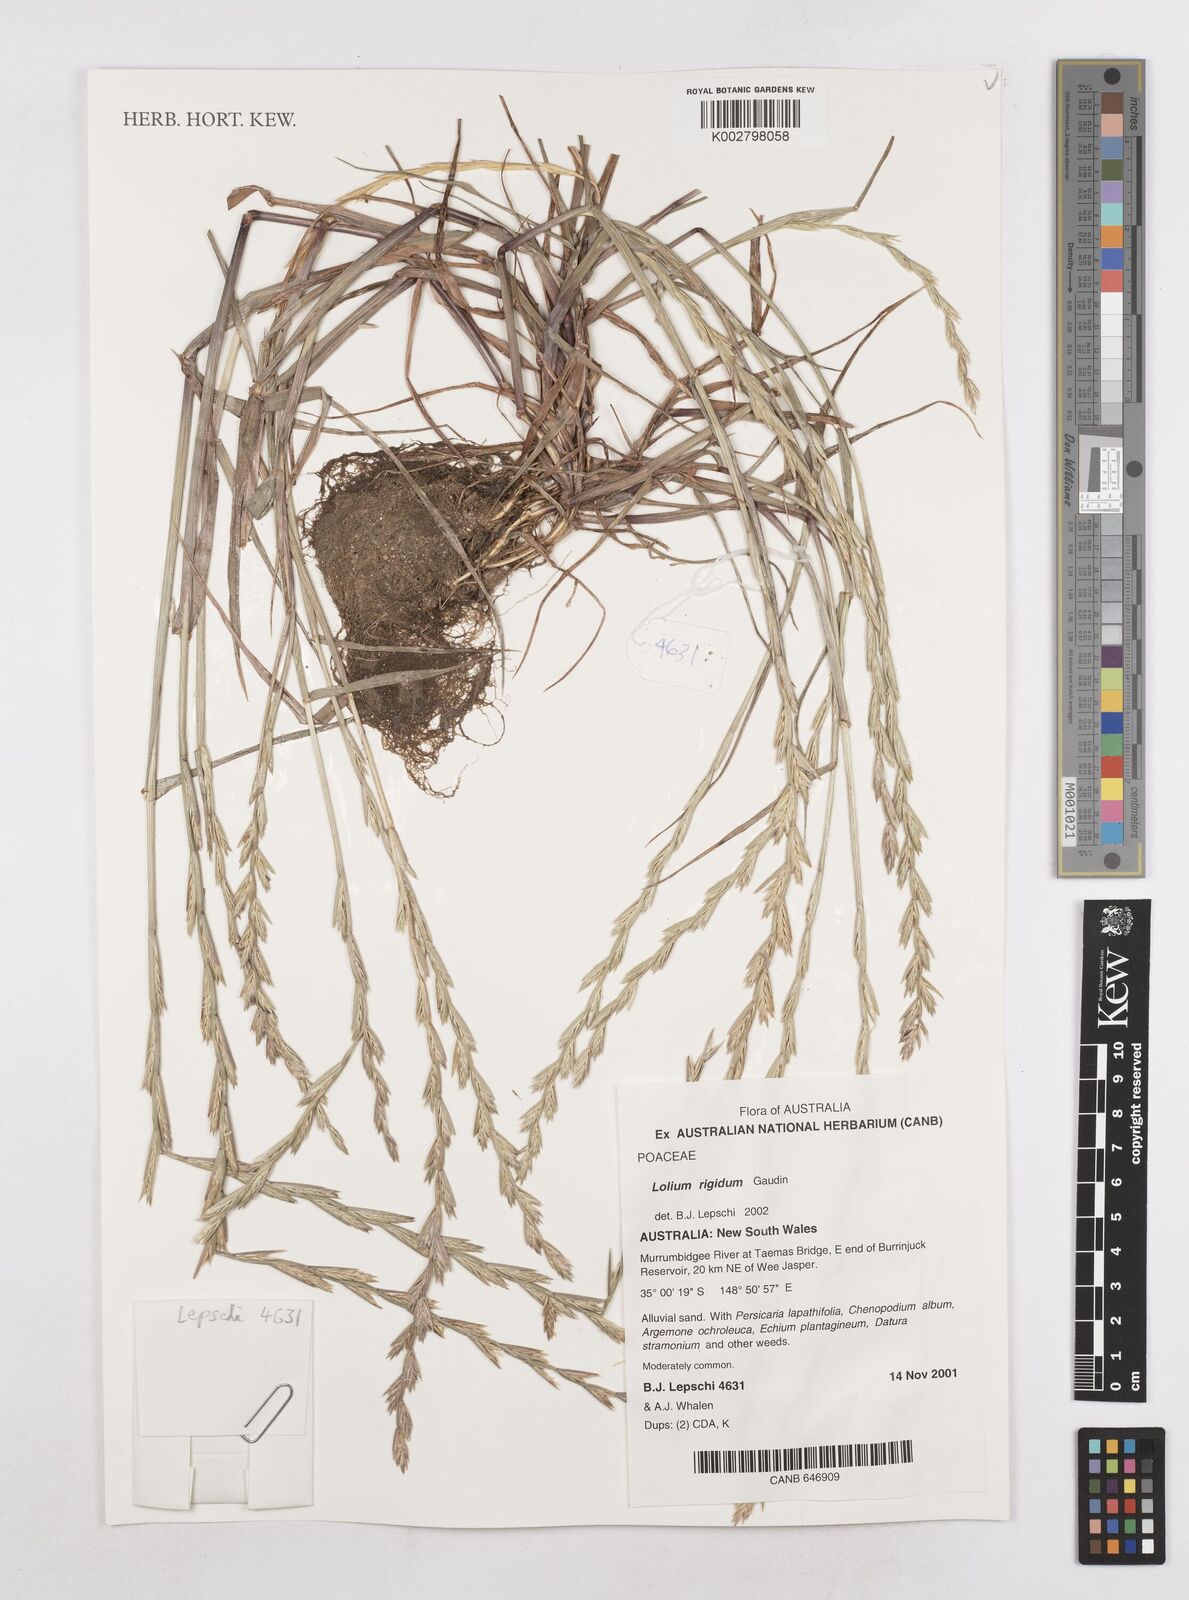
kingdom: Plantae
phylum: Tracheophyta
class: Liliopsida
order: Poales
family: Poaceae
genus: Lolium
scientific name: Lolium
